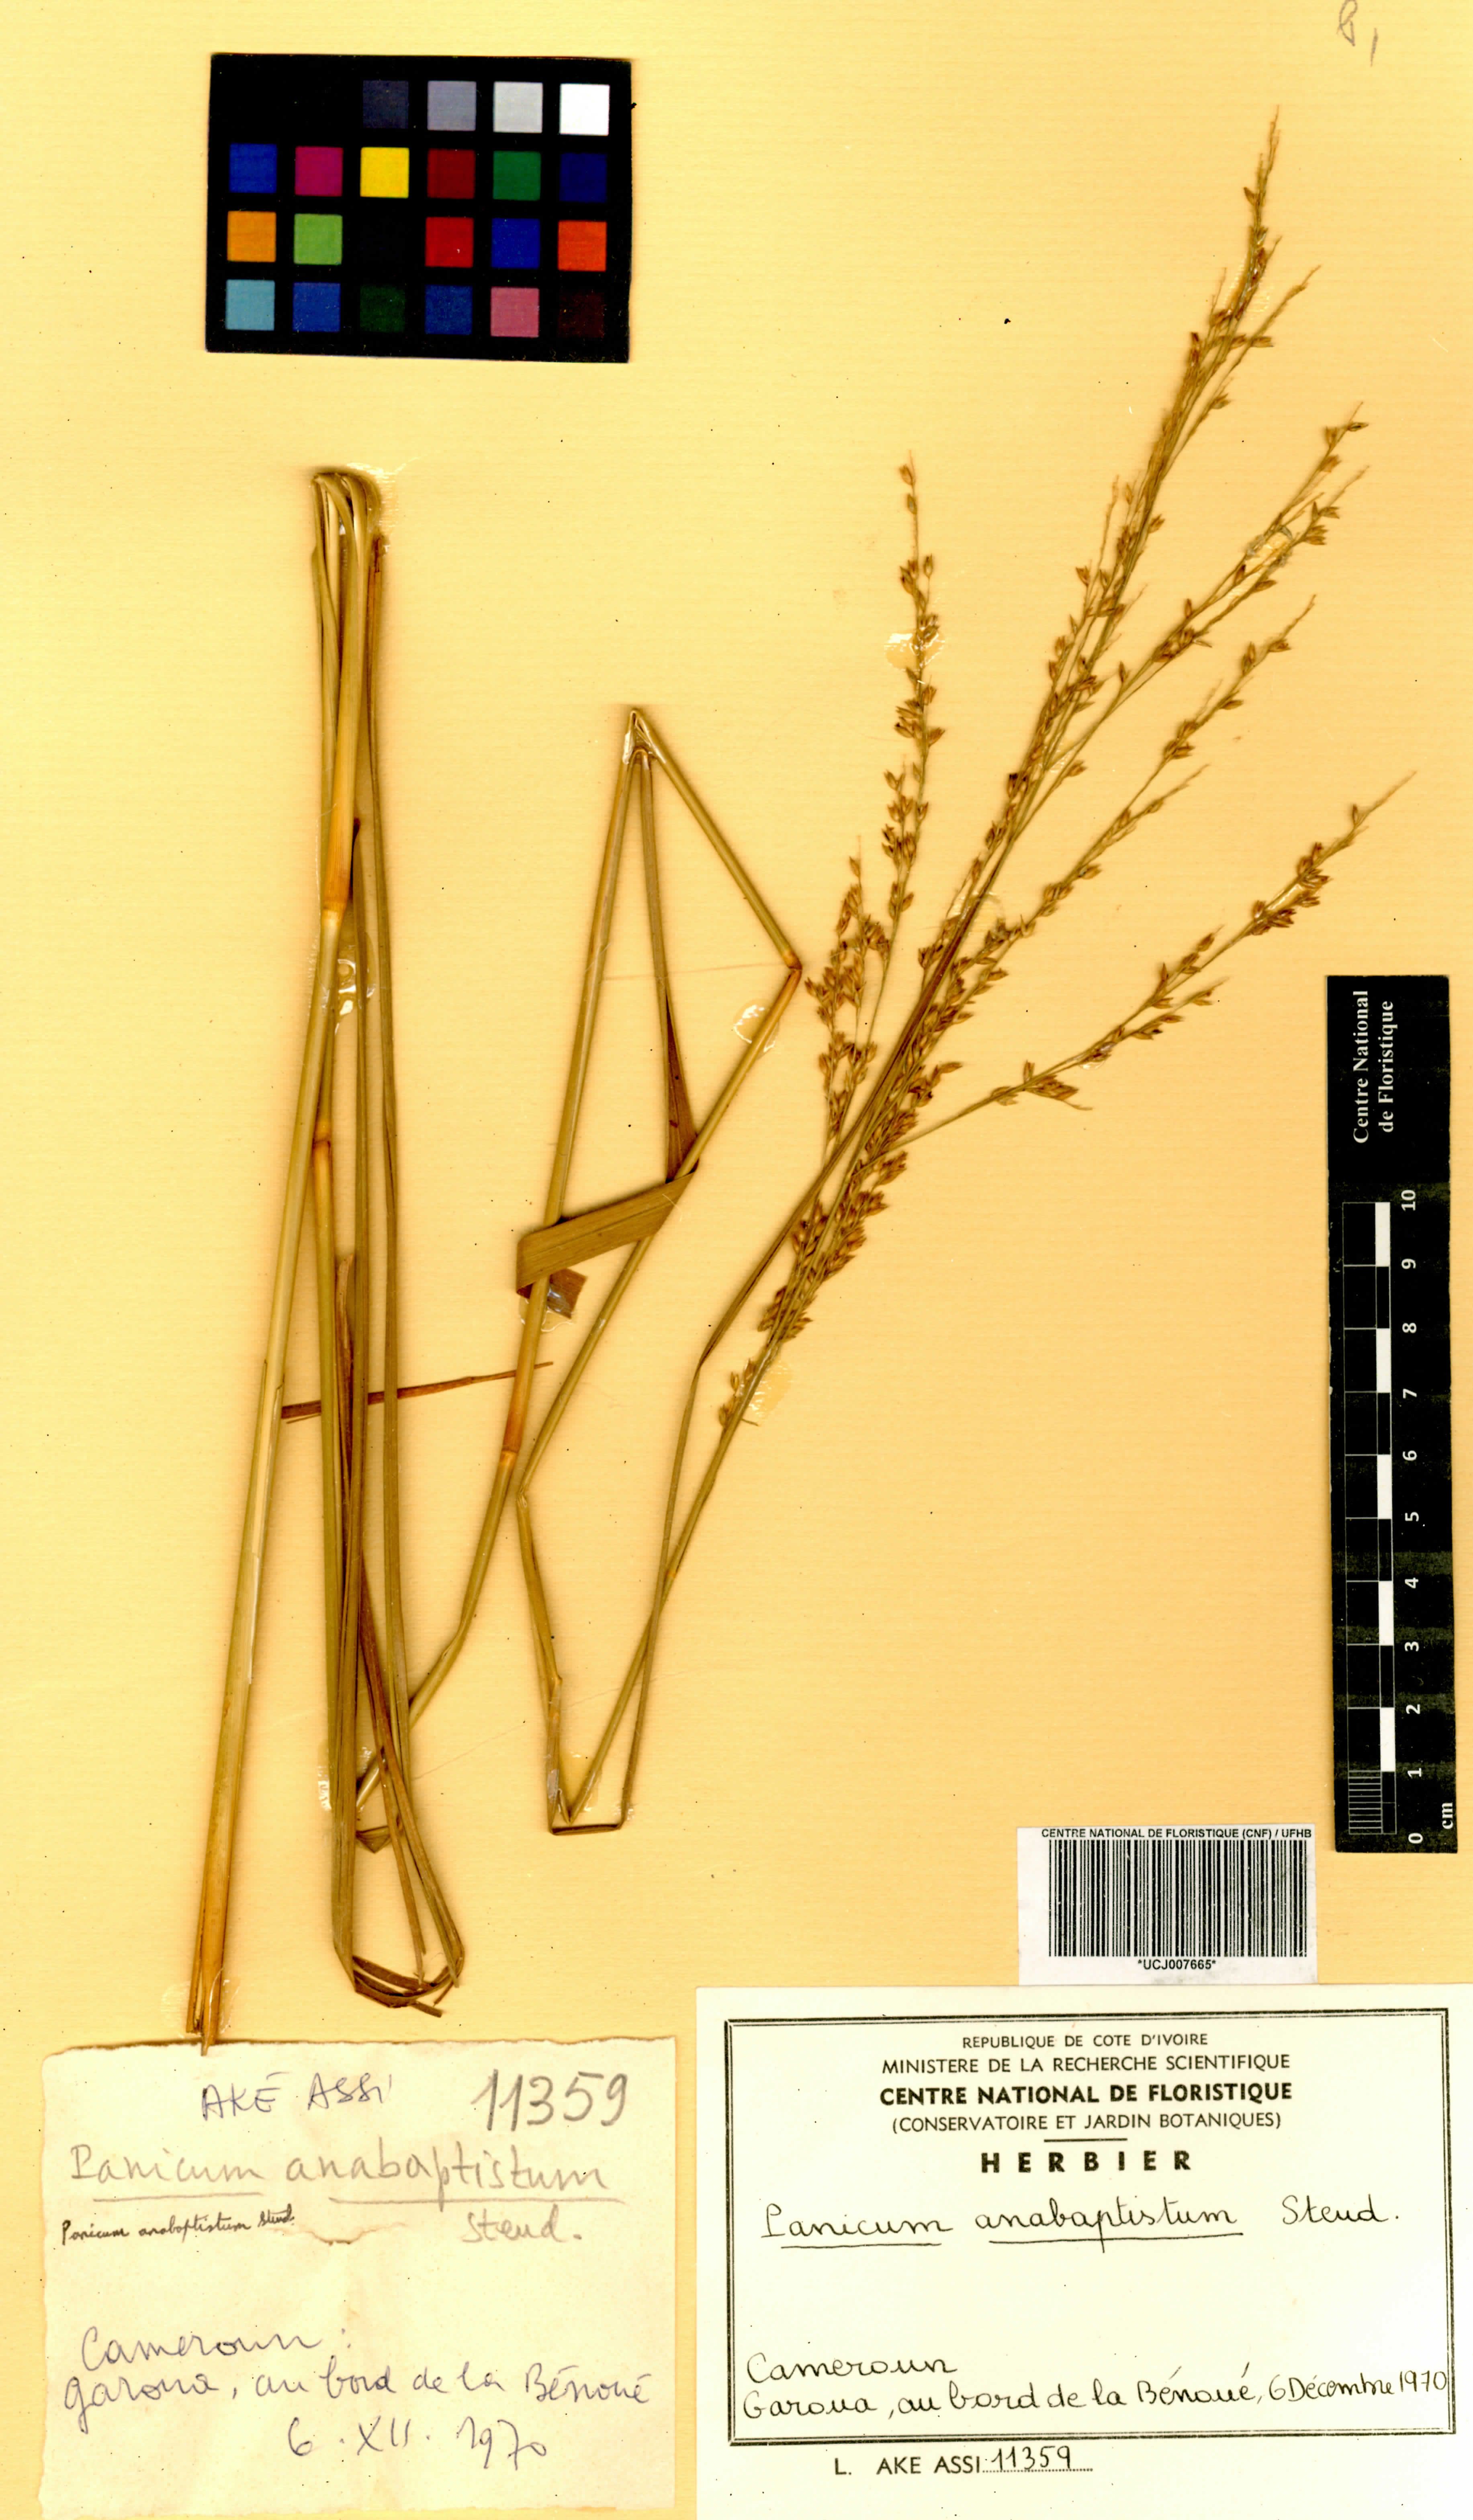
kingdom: Plantae
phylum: Tracheophyta
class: Liliopsida
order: Poales
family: Poaceae
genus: Panicum
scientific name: Panicum anabaptistum
